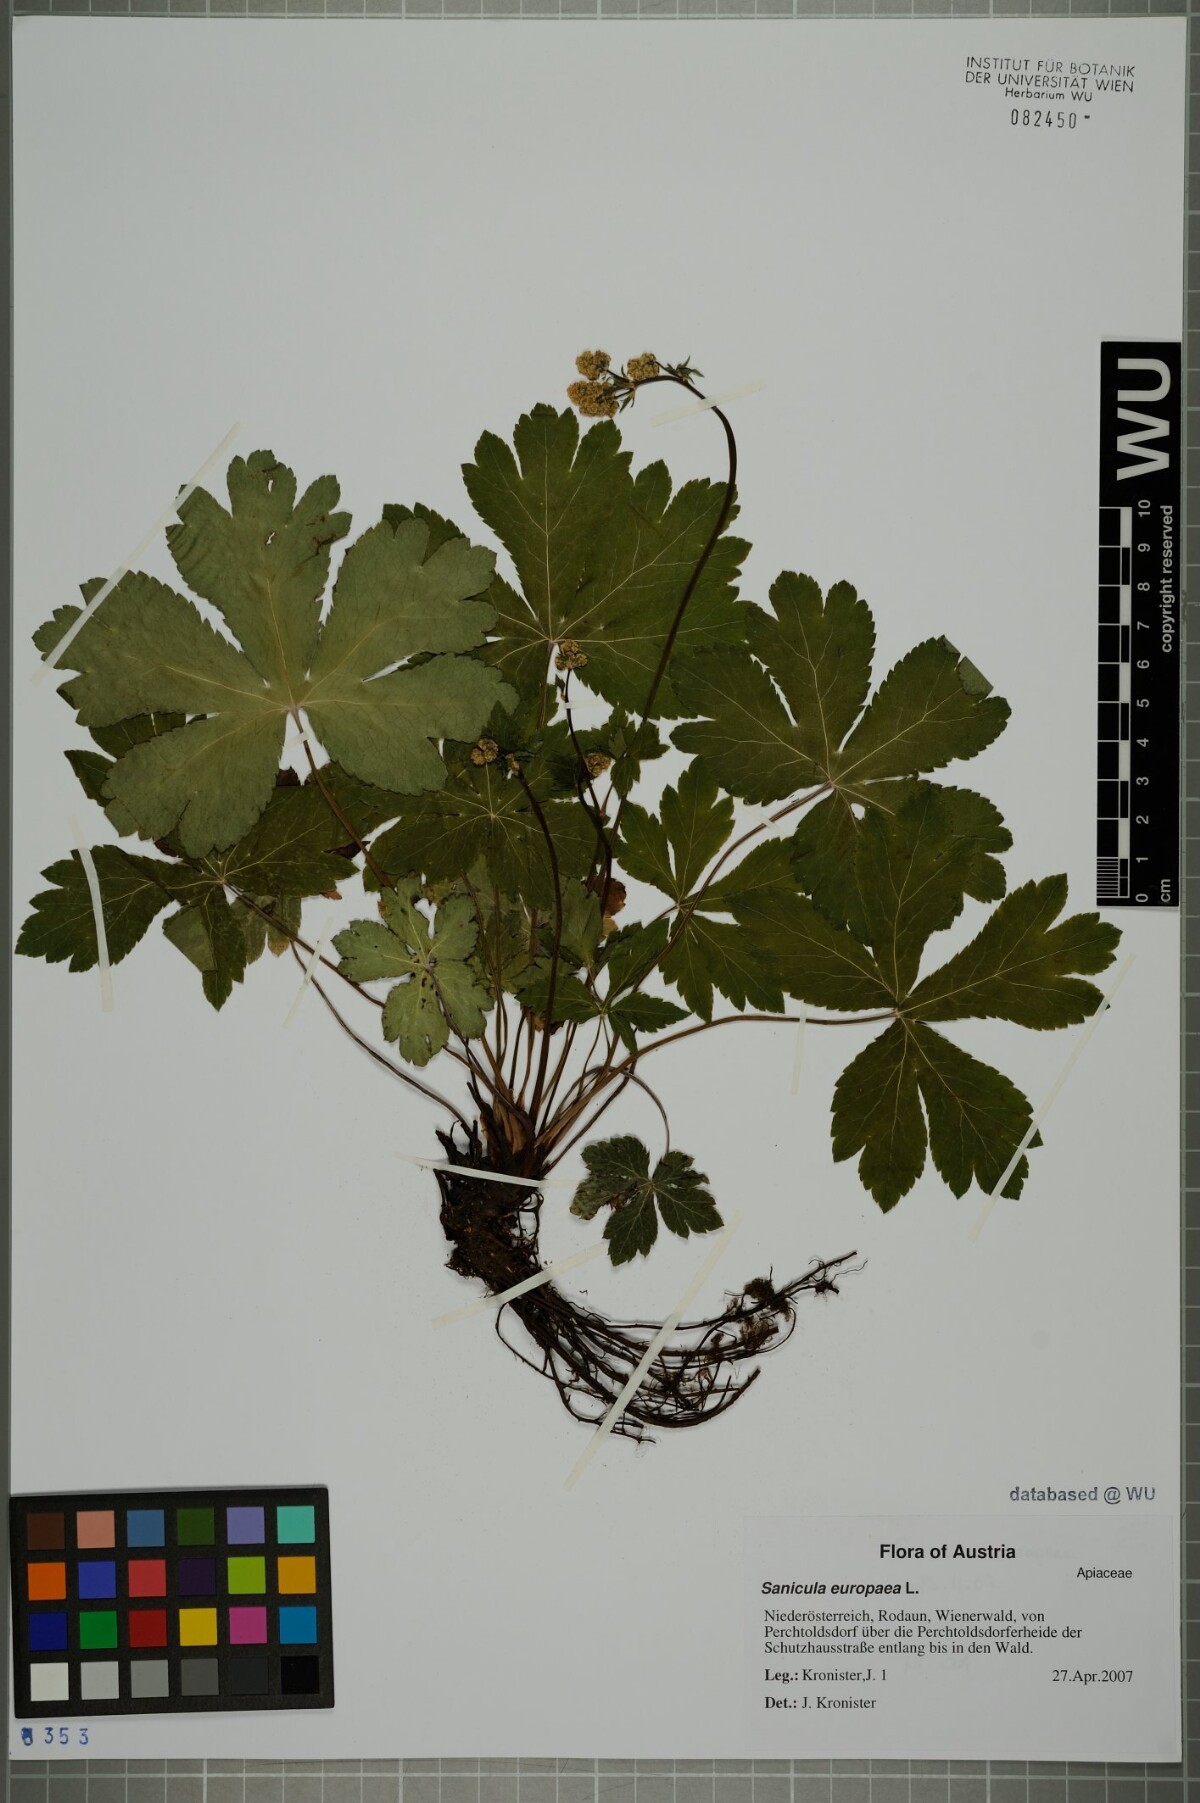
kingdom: Plantae
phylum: Tracheophyta
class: Magnoliopsida
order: Apiales
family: Apiaceae
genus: Sanicula
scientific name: Sanicula europaea
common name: Sanicle
